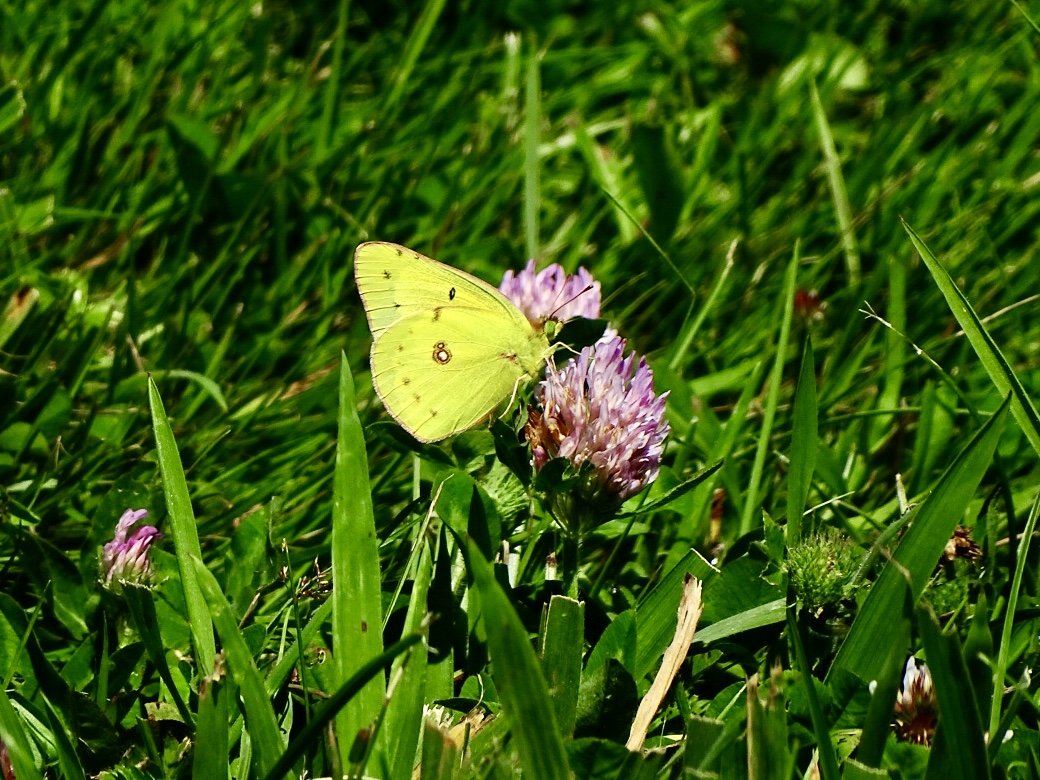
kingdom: Animalia
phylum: Arthropoda
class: Insecta
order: Lepidoptera
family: Pieridae
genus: Colias
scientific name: Colias eurytheme
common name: Orange Sulphur
